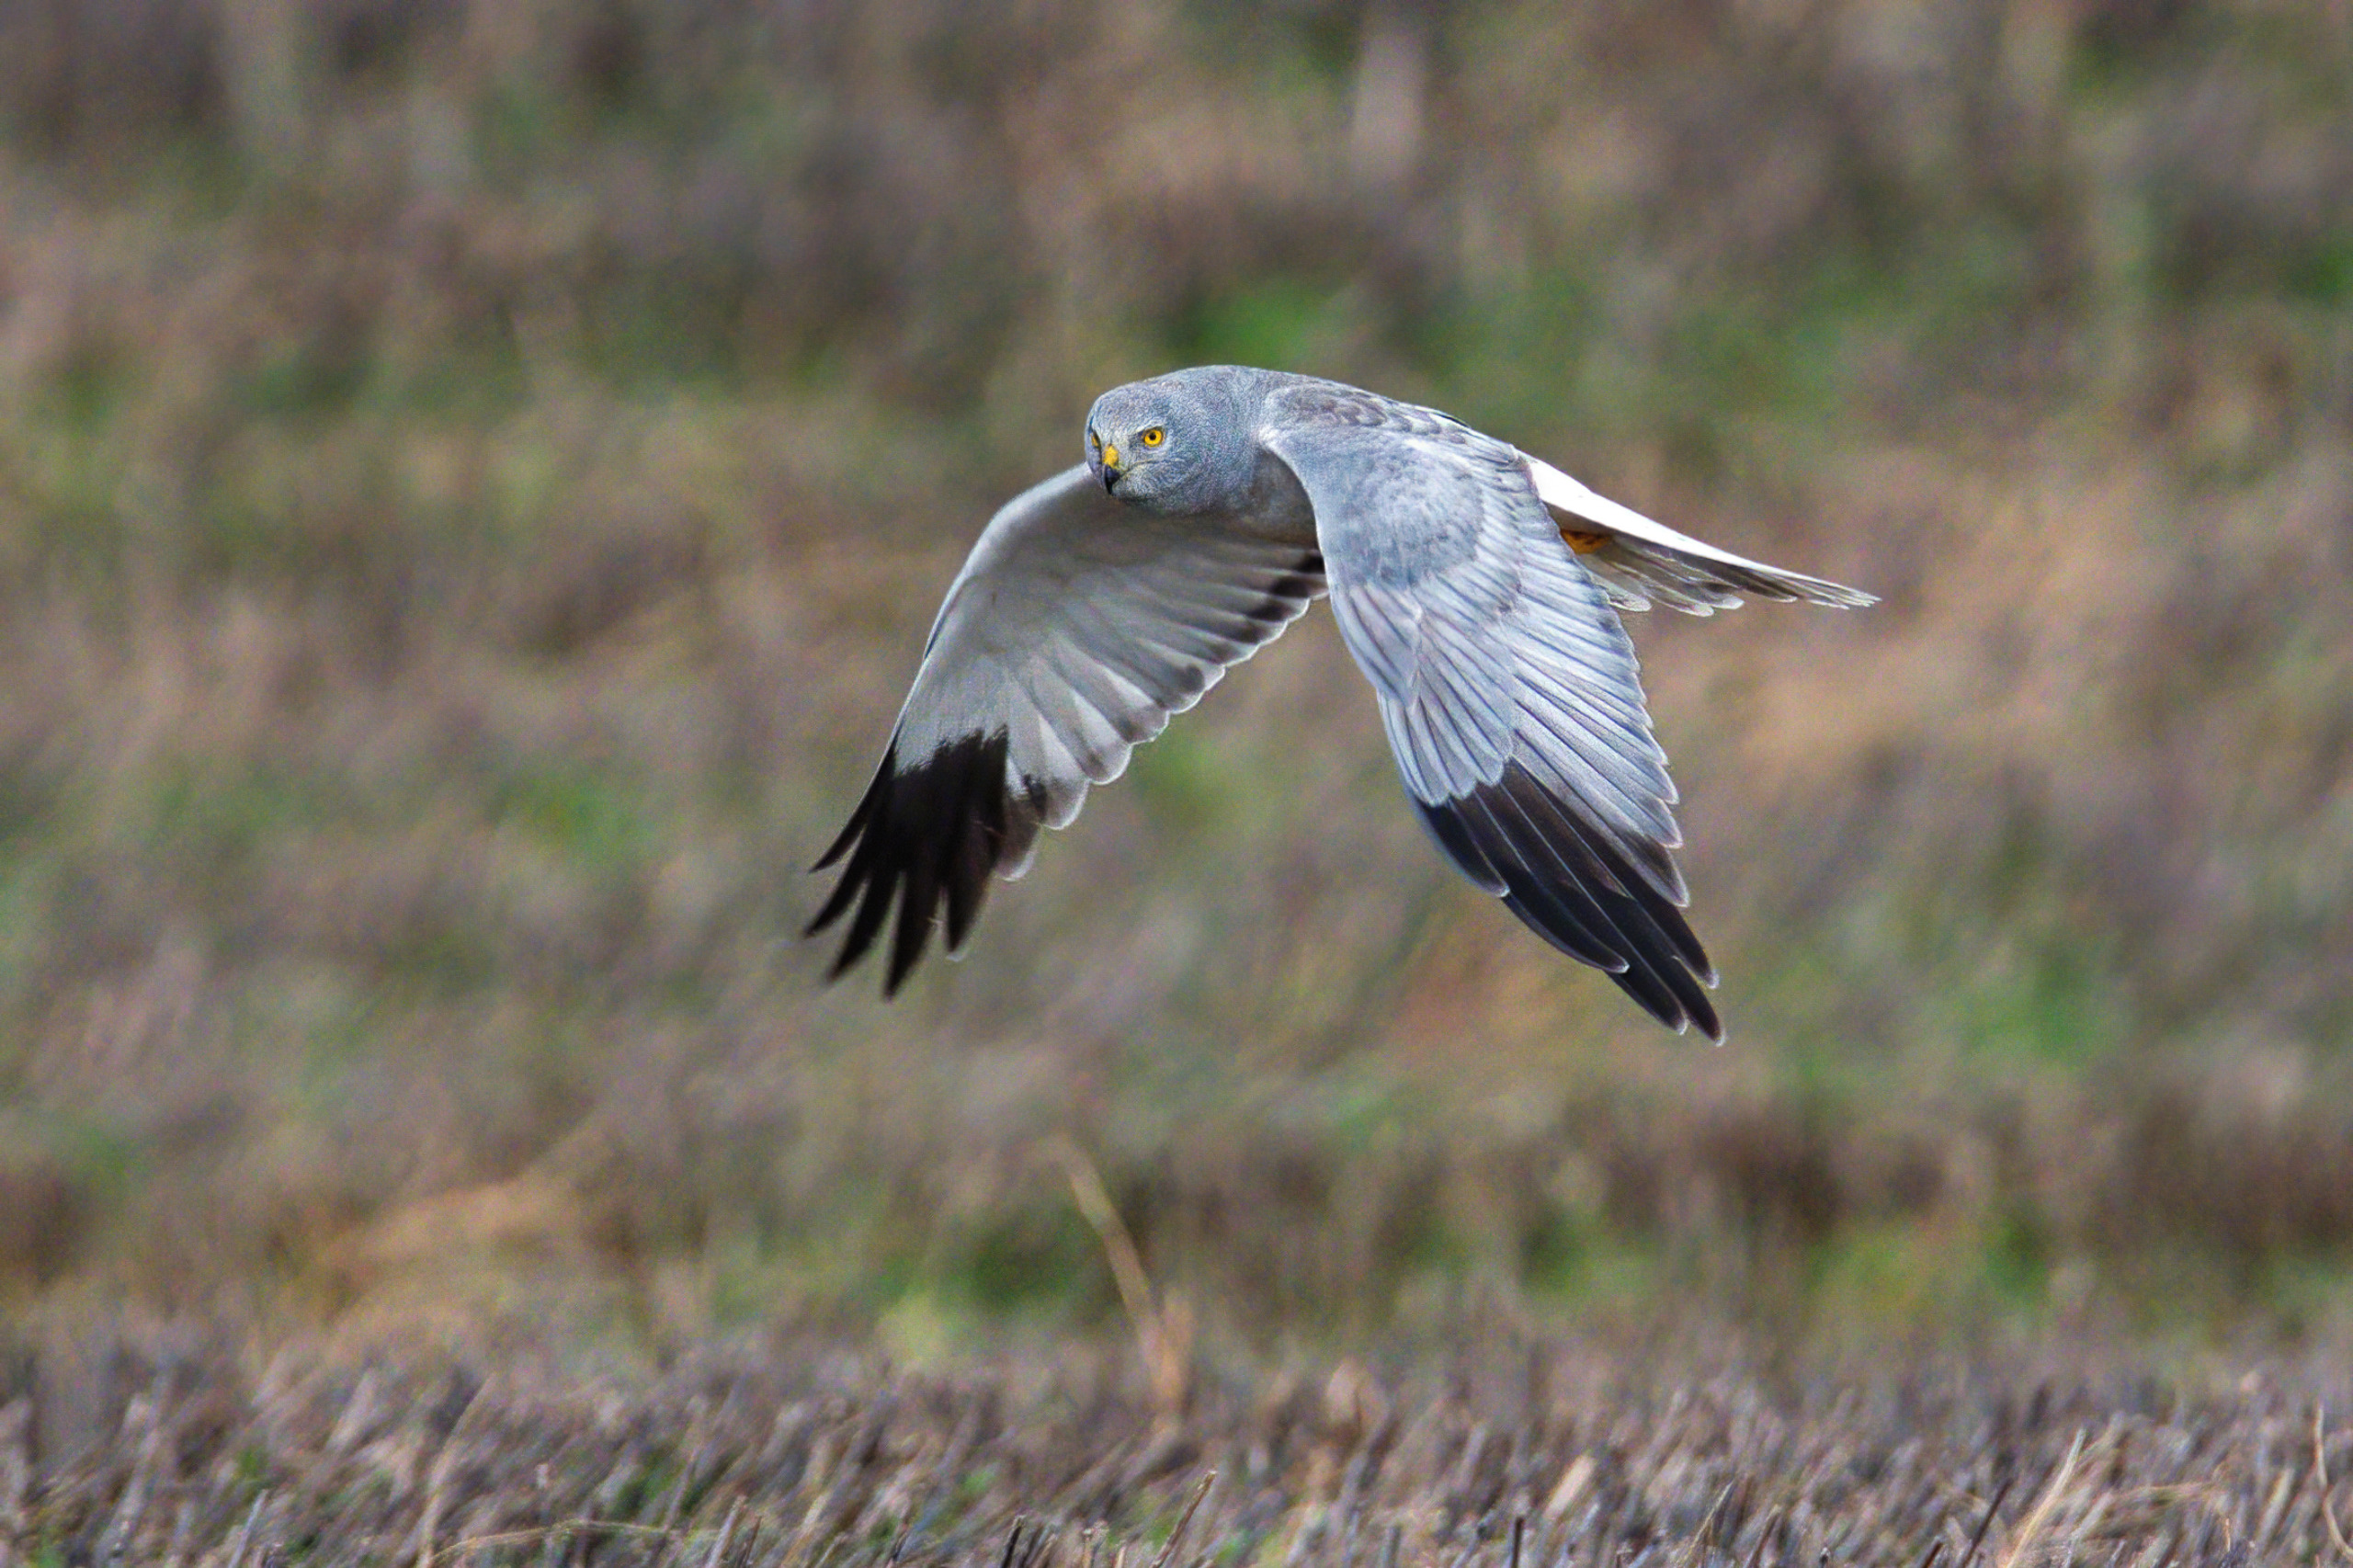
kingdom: Animalia
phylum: Chordata
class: Aves
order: Accipitriformes
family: Accipitridae
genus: Circus
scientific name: Circus cyaneus
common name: Blå kærhøg
